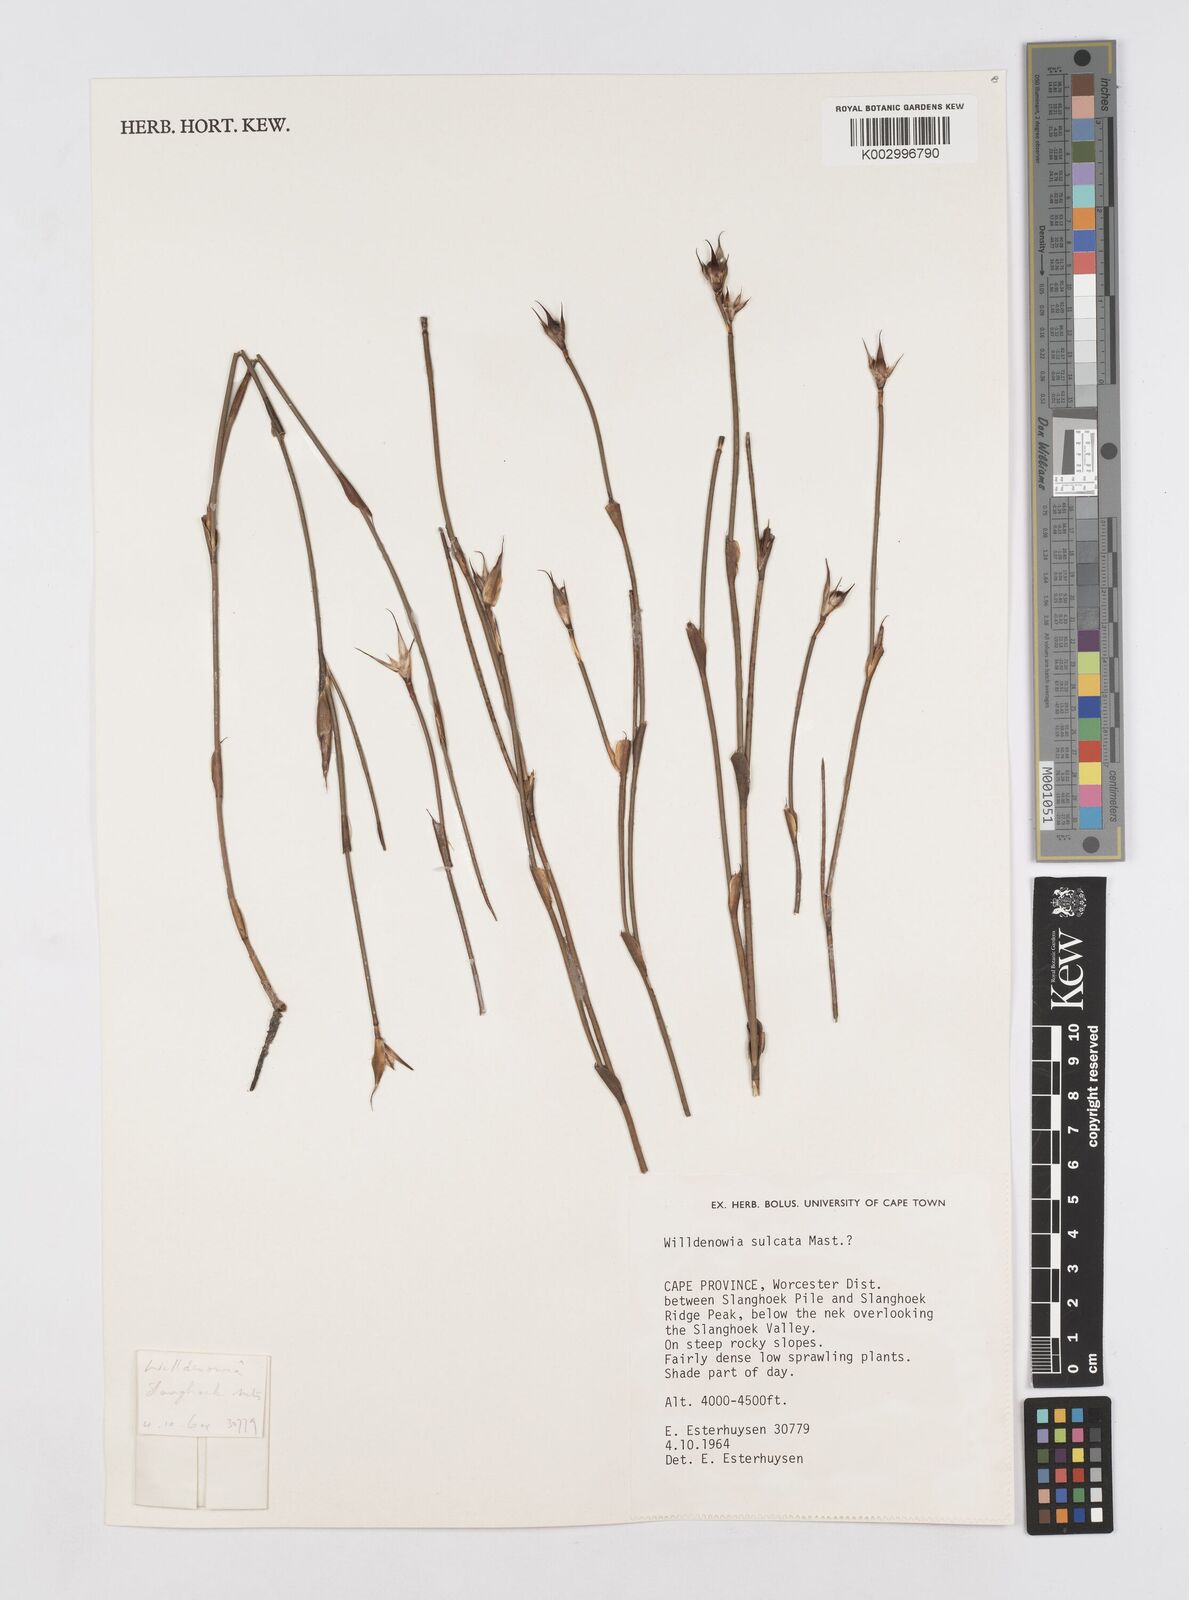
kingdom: Plantae
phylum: Tracheophyta
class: Liliopsida
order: Poales
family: Restionaceae
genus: Willdenowia
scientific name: Willdenowia sulcata
